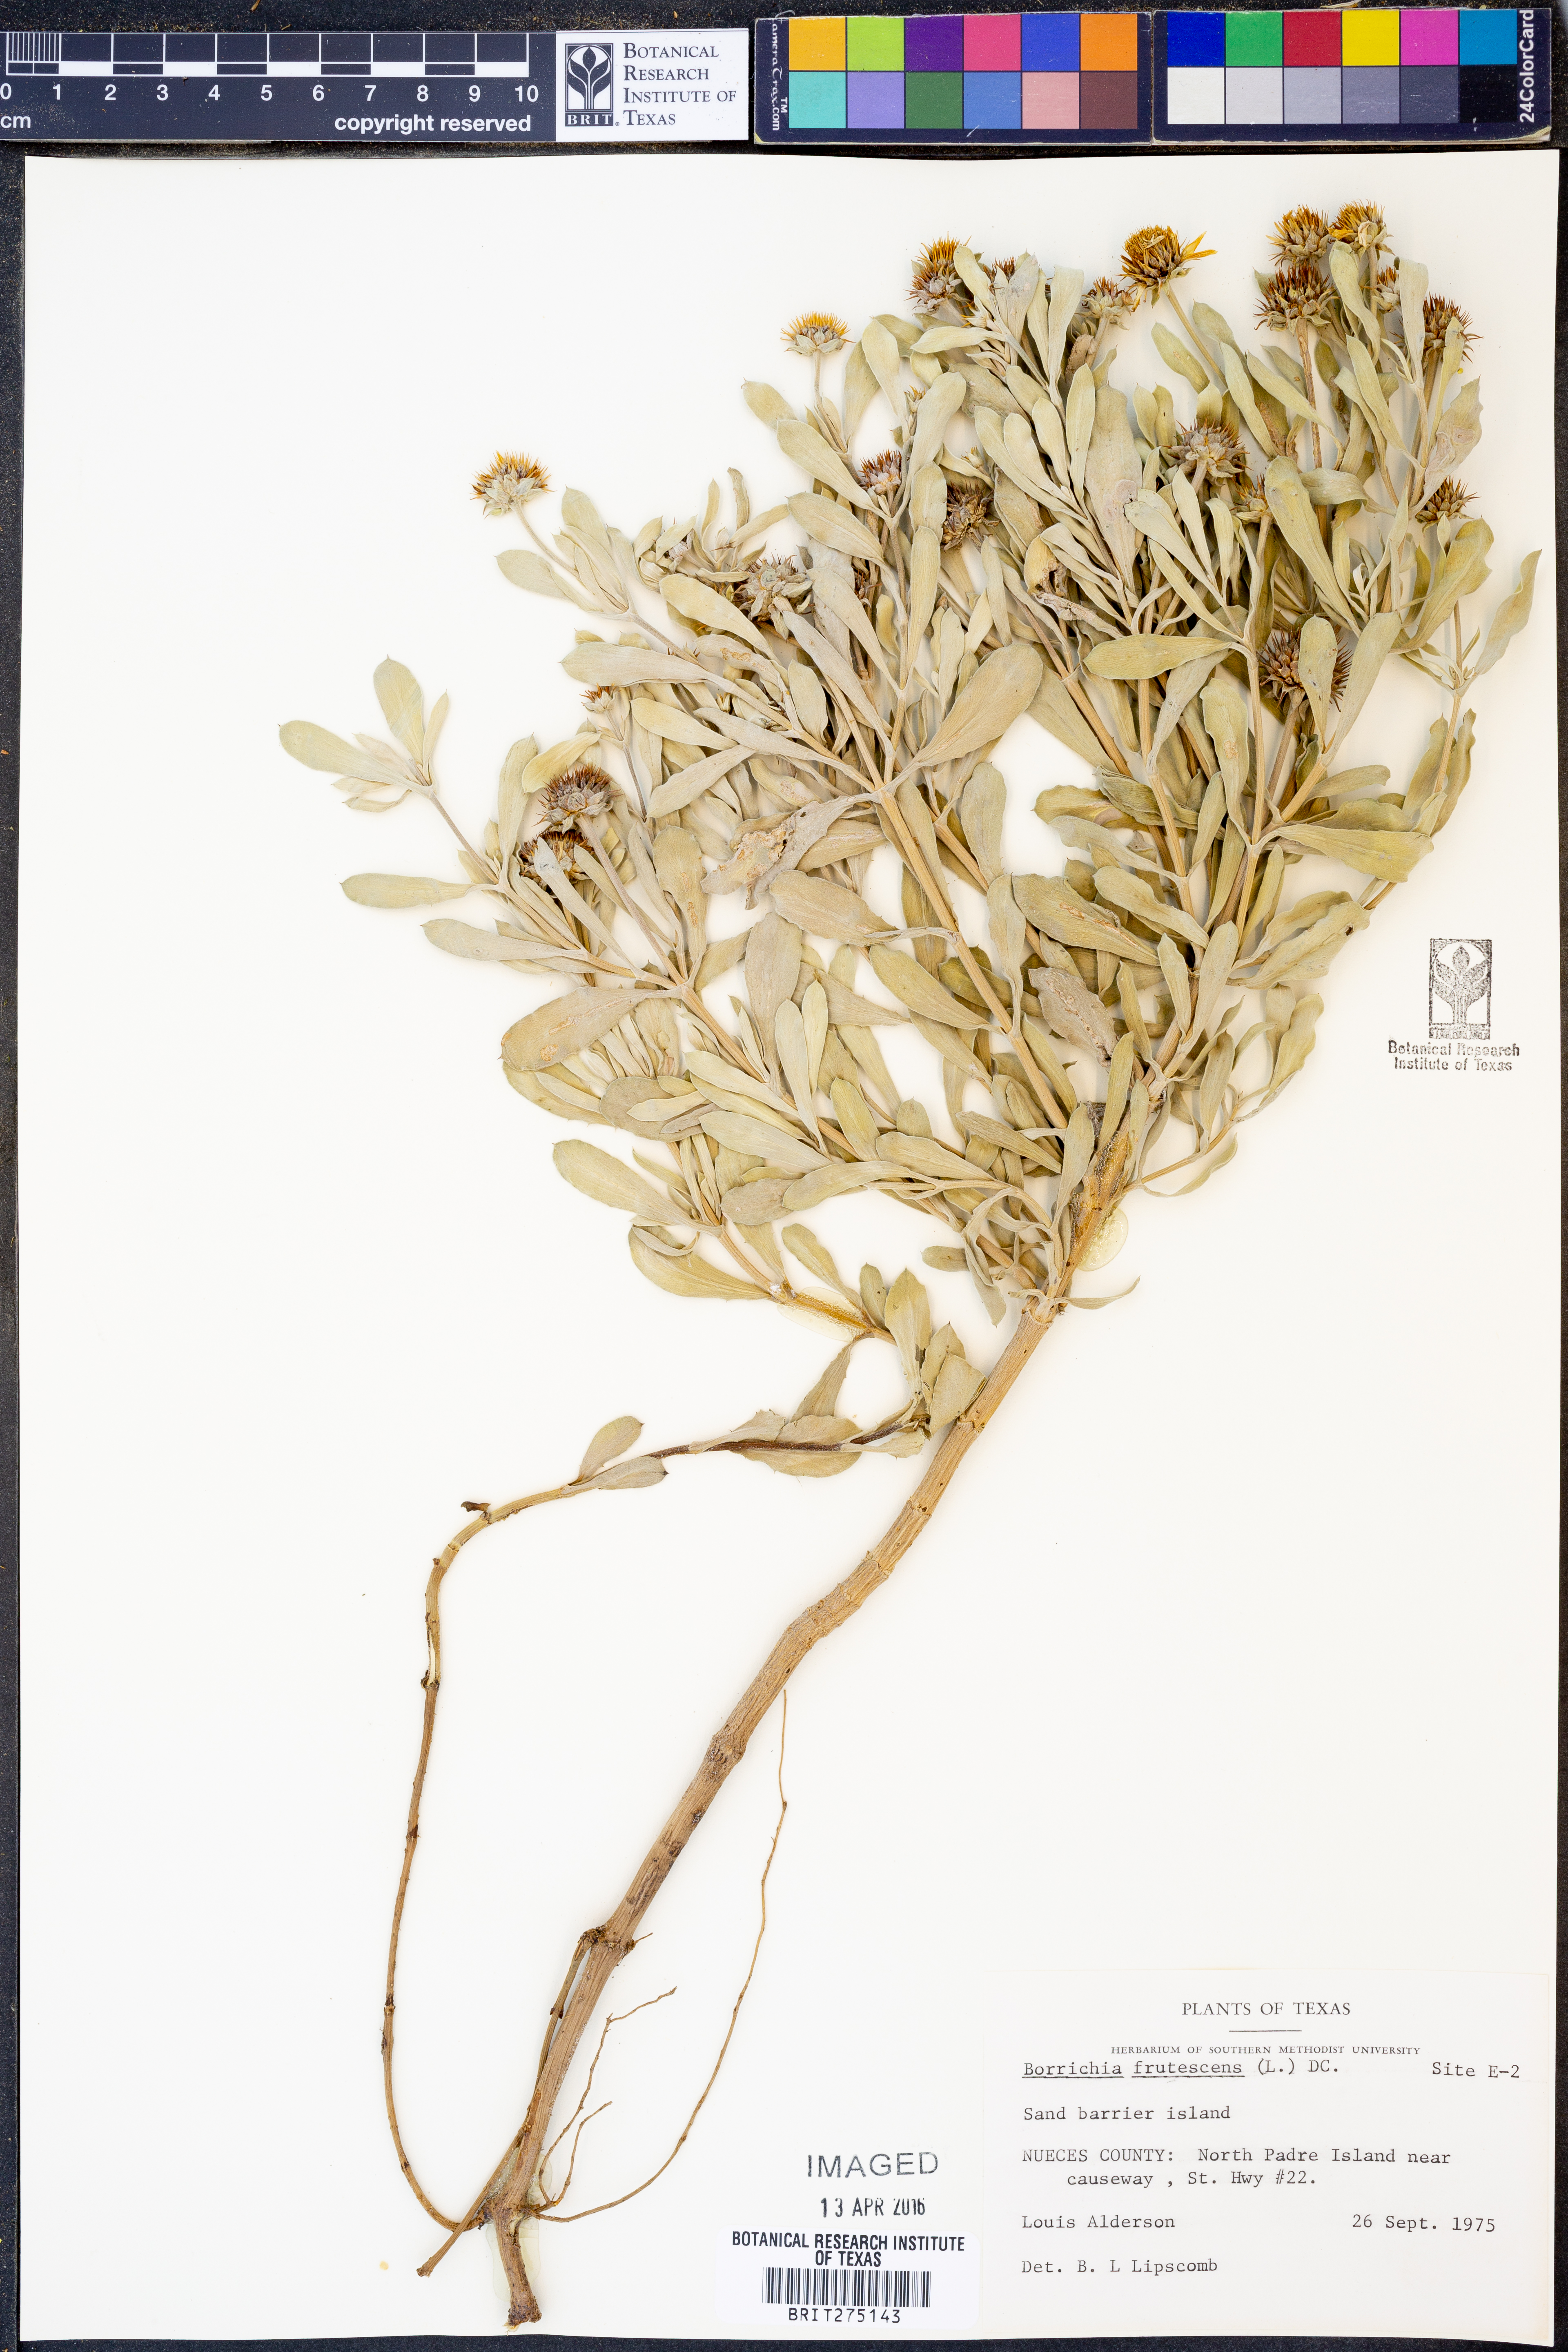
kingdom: Plantae
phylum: Tracheophyta
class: Magnoliopsida
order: Asterales
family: Asteraceae
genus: Borrichia
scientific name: Borrichia frutescens
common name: Sea oxeye
